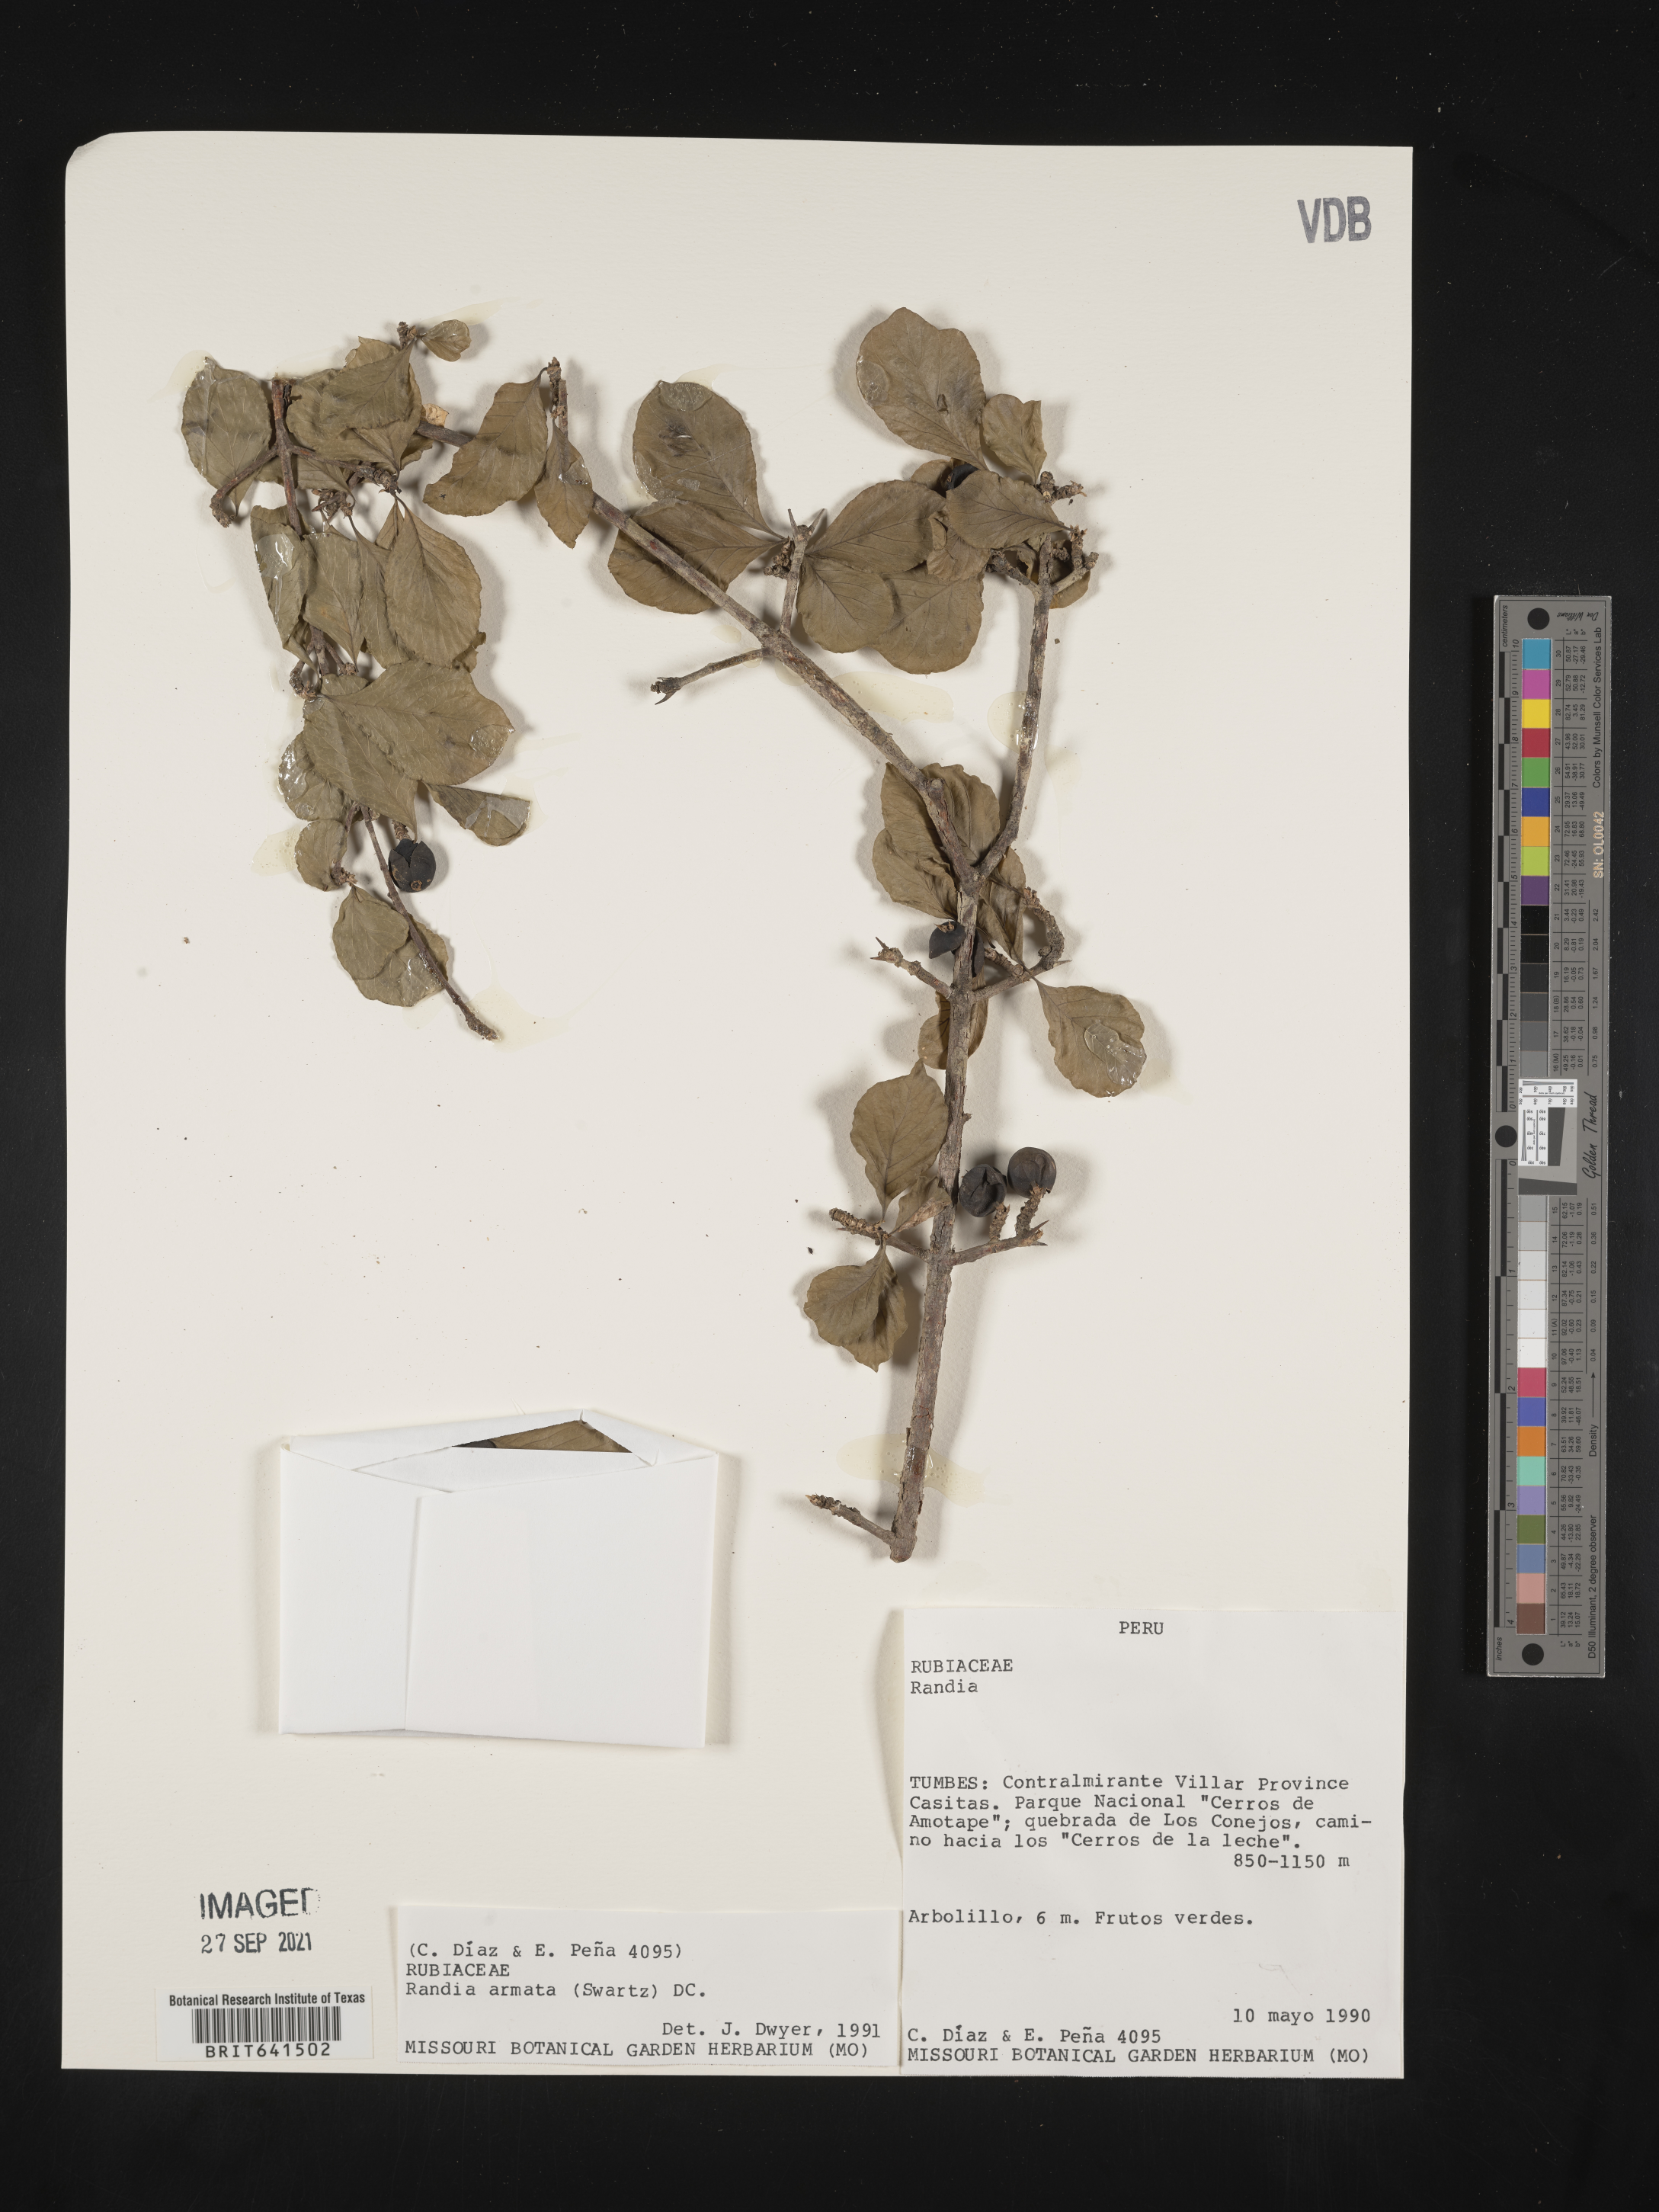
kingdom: Plantae
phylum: Tracheophyta
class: Magnoliopsida
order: Gentianales
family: Rubiaceae
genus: Randia
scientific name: Randia
